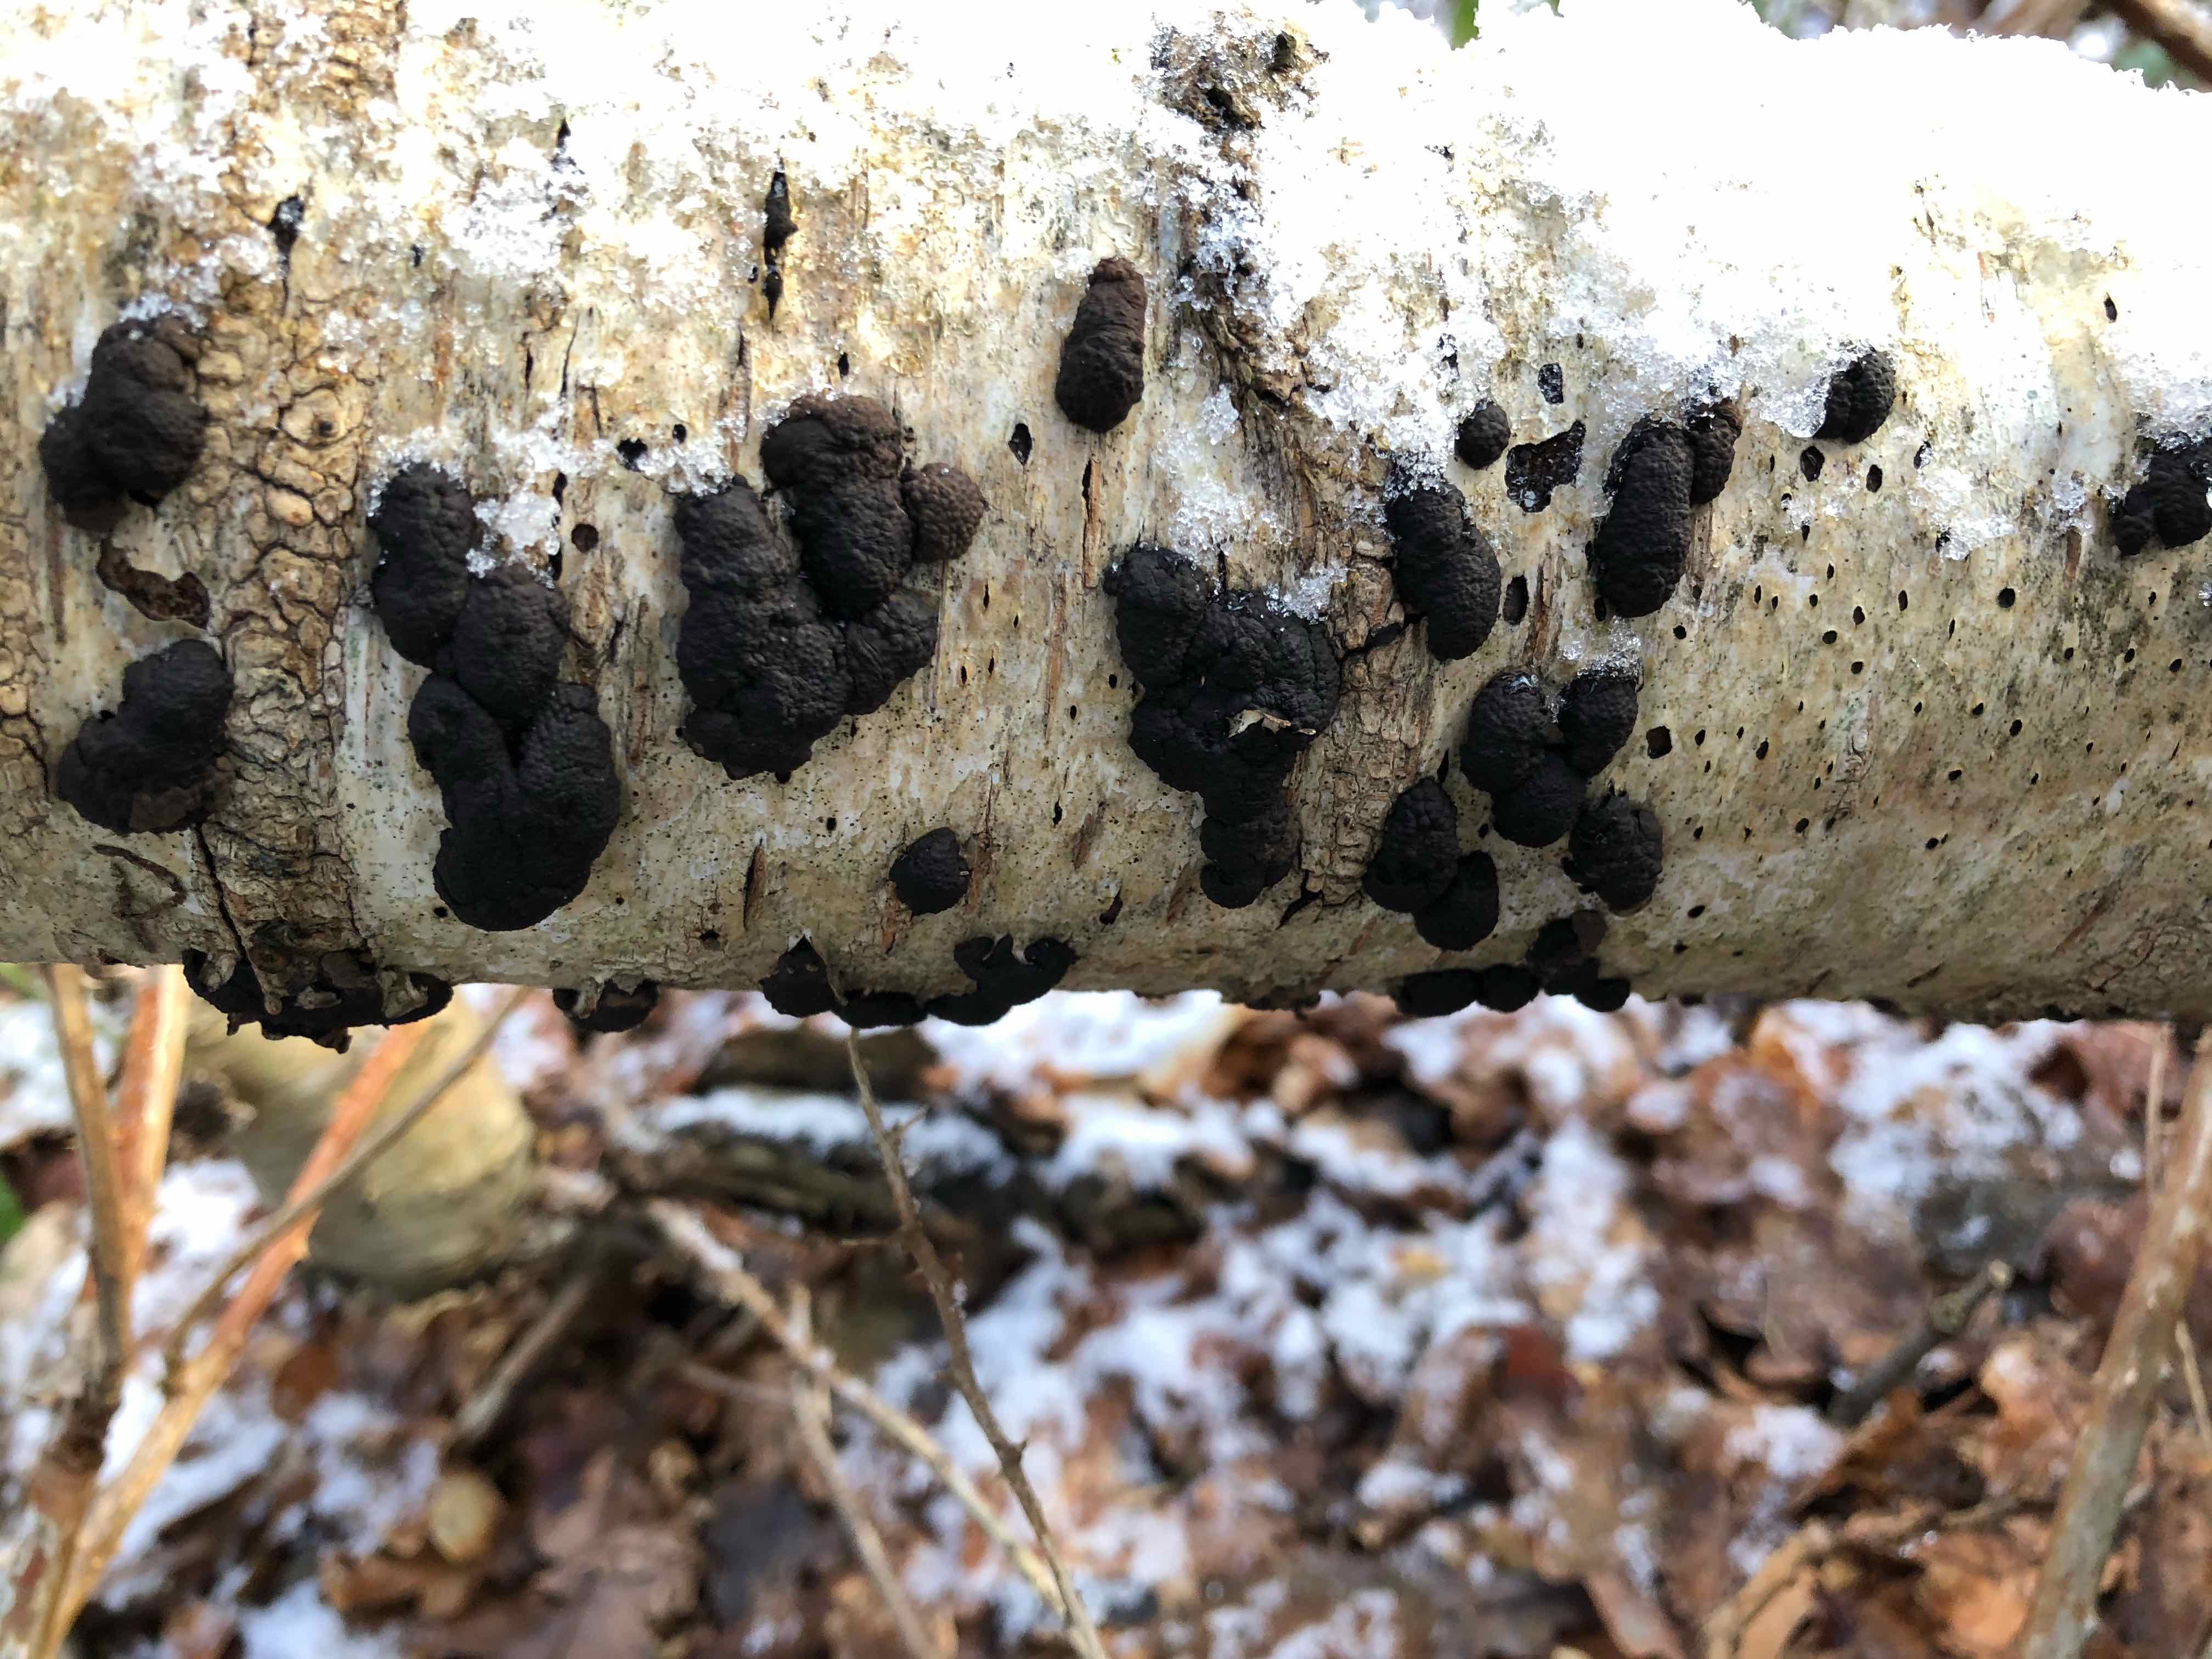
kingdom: Fungi
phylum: Ascomycota
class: Sordariomycetes
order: Xylariales
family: Hypoxylaceae
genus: Jackrogersella
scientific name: Jackrogersella multiformis
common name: foranderlig kulbær
